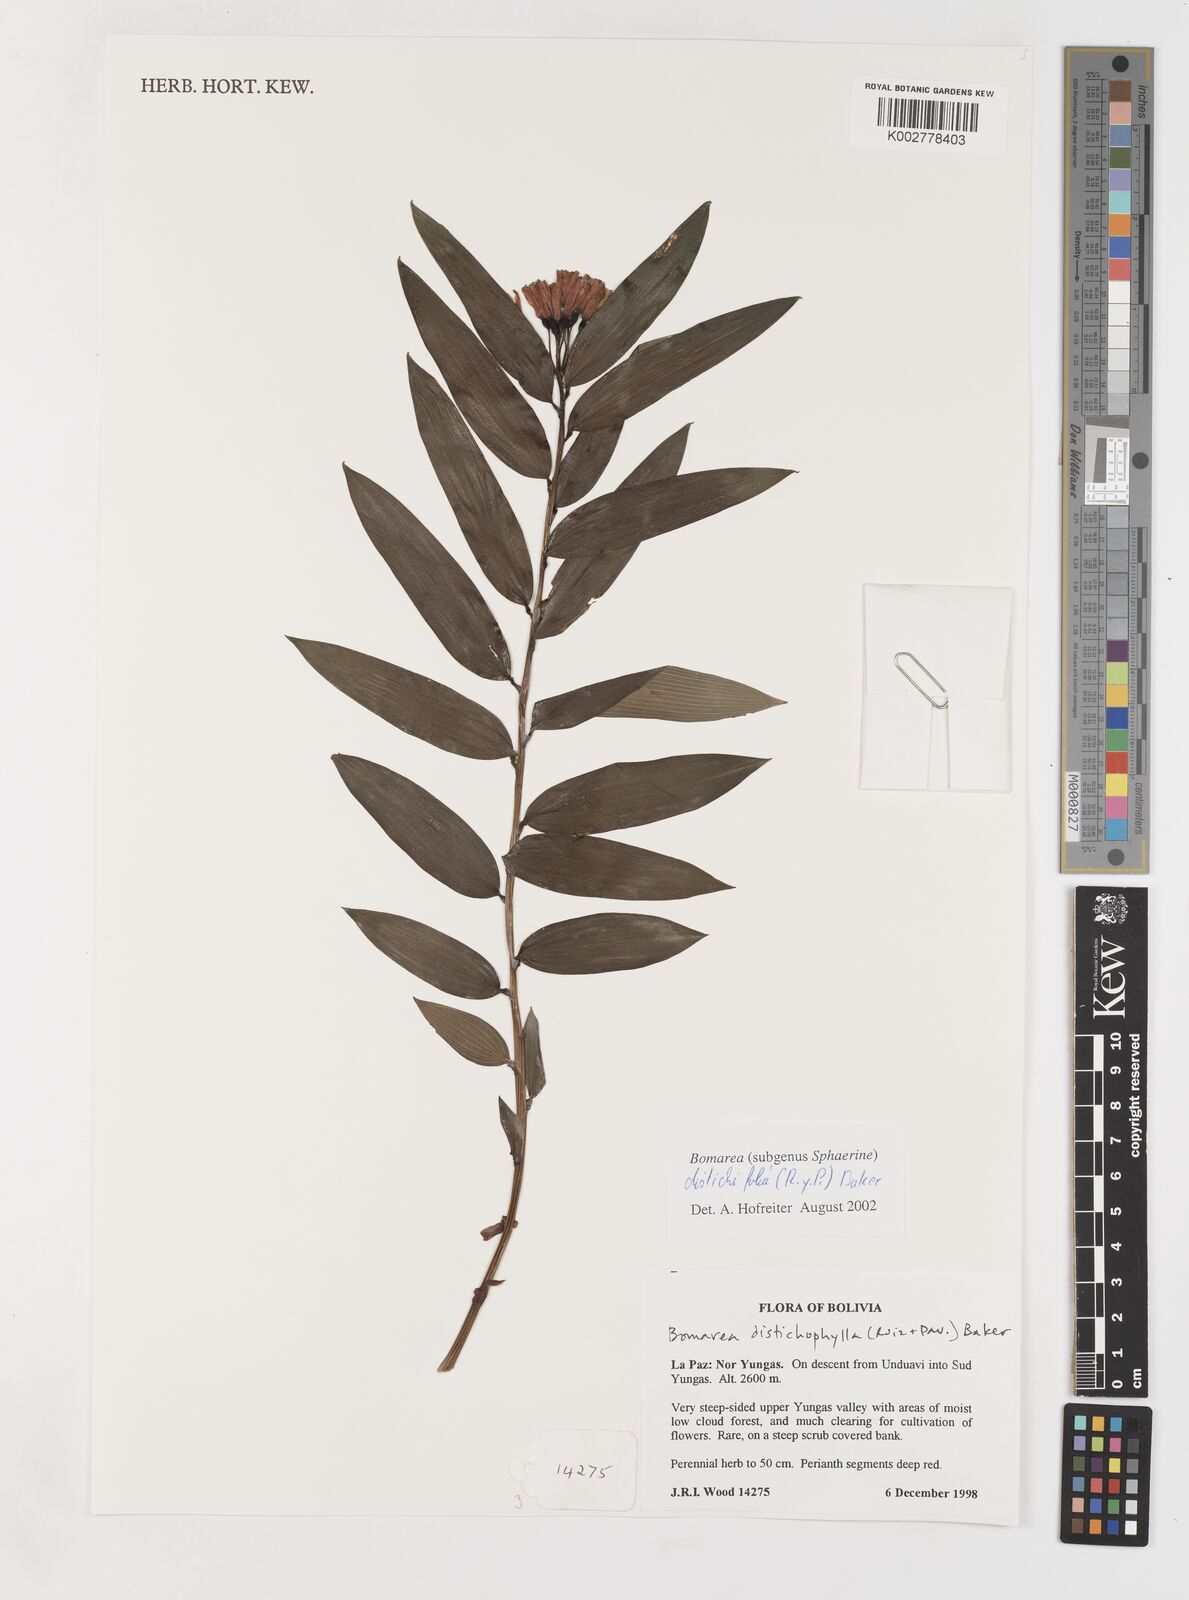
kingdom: Plantae
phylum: Tracheophyta
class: Liliopsida
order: Liliales
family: Alstroemeriaceae
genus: Bomarea
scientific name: Bomarea distichifolia
